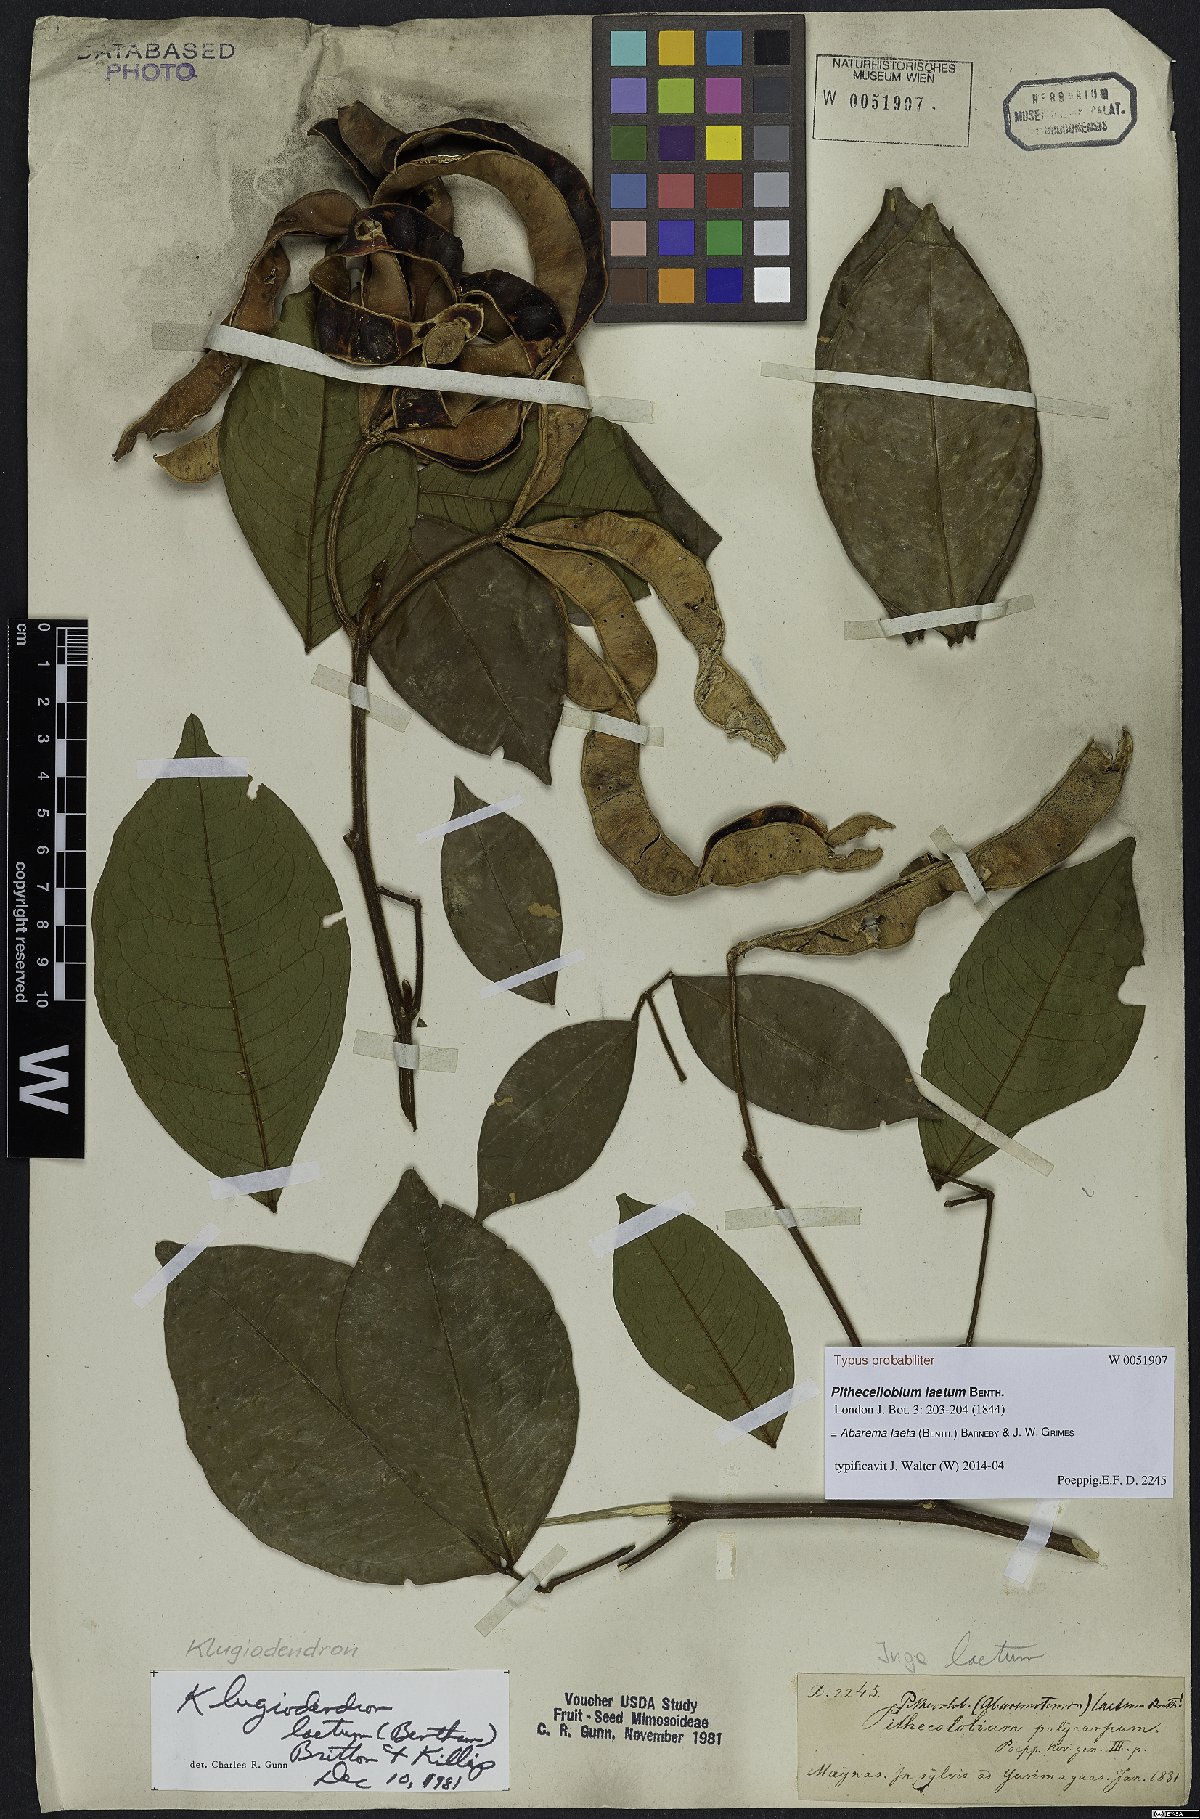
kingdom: Plantae
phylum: Tracheophyta
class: Magnoliopsida
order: Fabales
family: Fabaceae
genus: Jupunba
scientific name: Jupunba laeta
